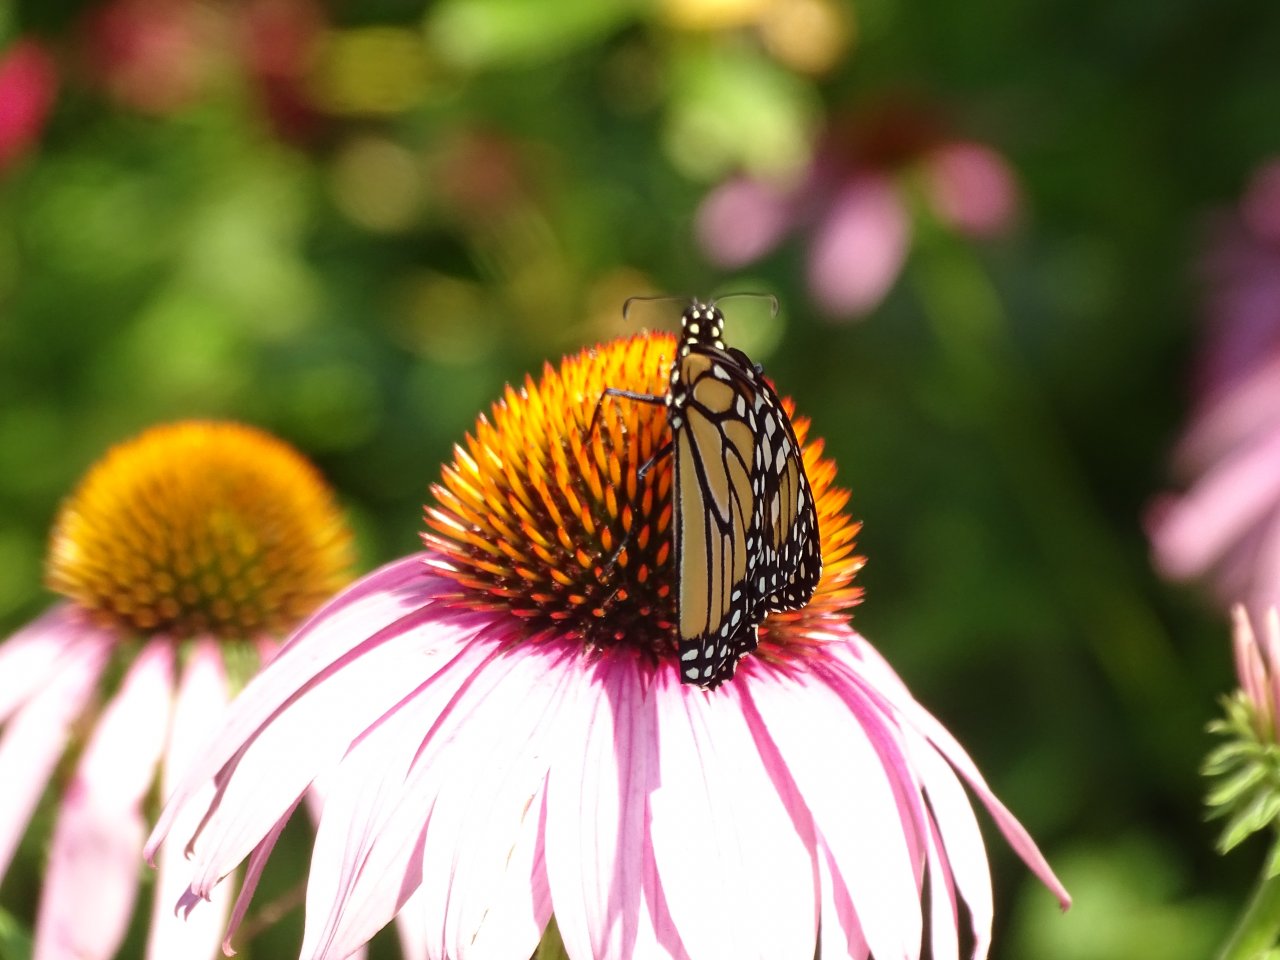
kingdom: Animalia
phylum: Arthropoda
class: Insecta
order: Lepidoptera
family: Nymphalidae
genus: Danaus
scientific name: Danaus plexippus
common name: Monarch
